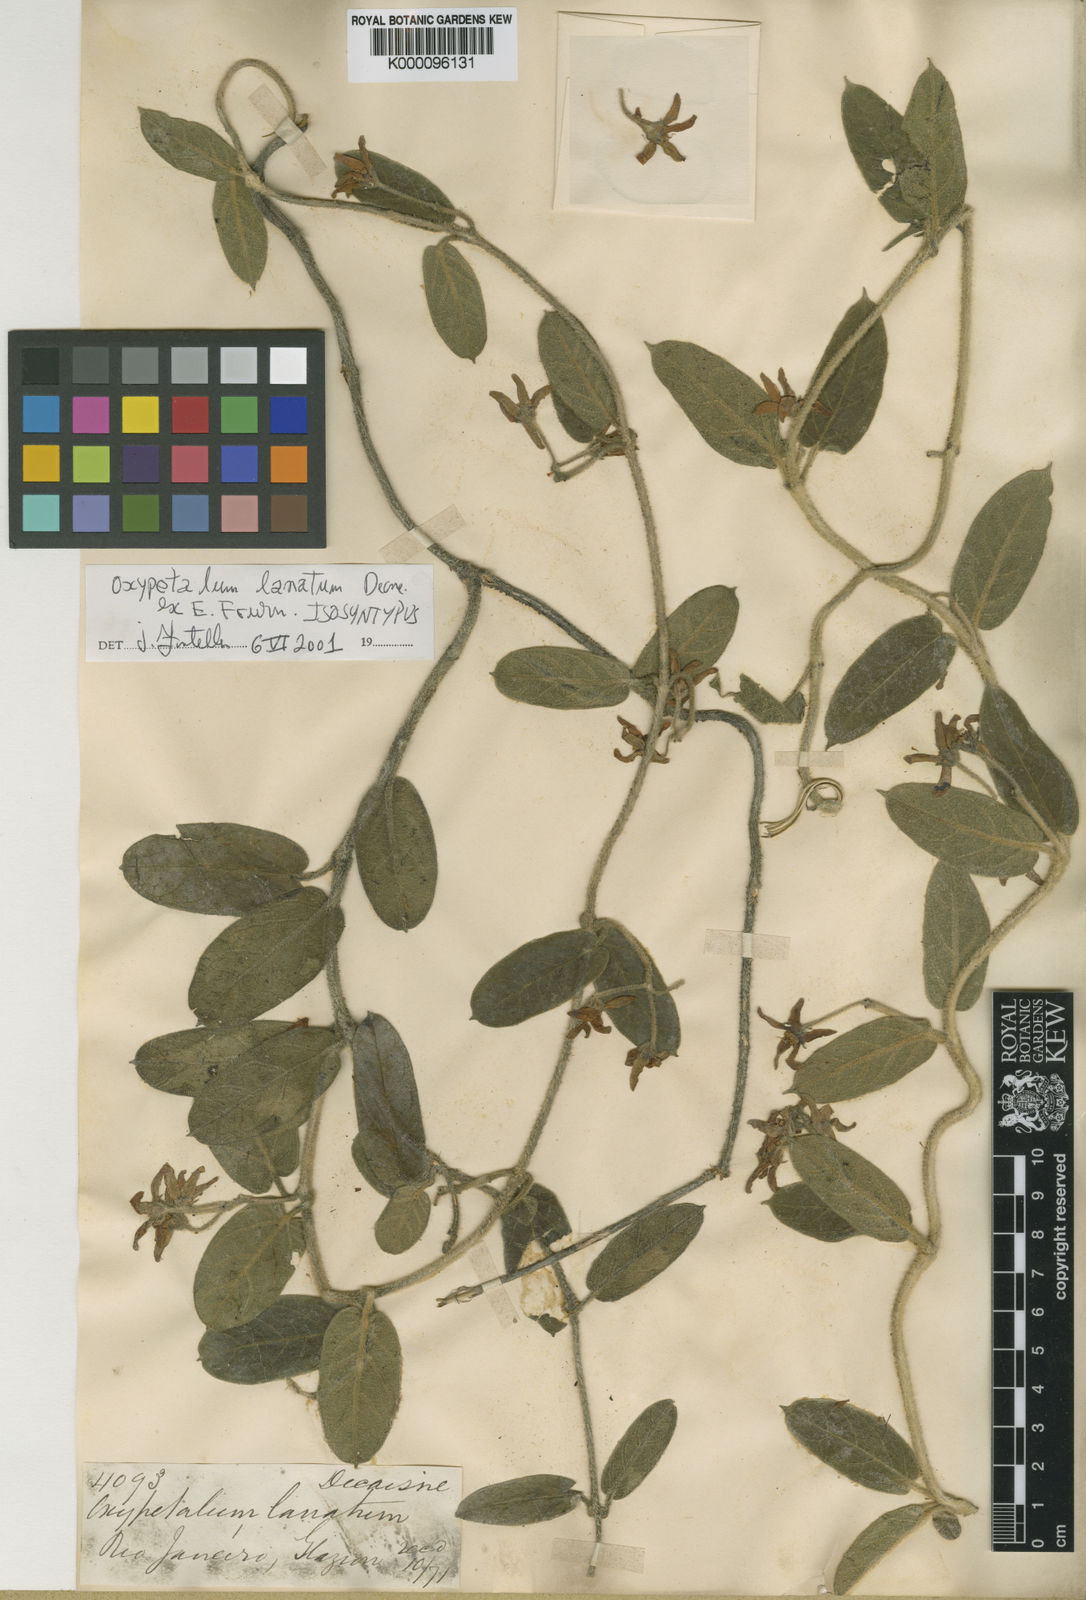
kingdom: Plantae
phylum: Tracheophyta
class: Magnoliopsida
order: Gentianales
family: Apocynaceae
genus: Oxypetalum
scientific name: Oxypetalum lanatum
